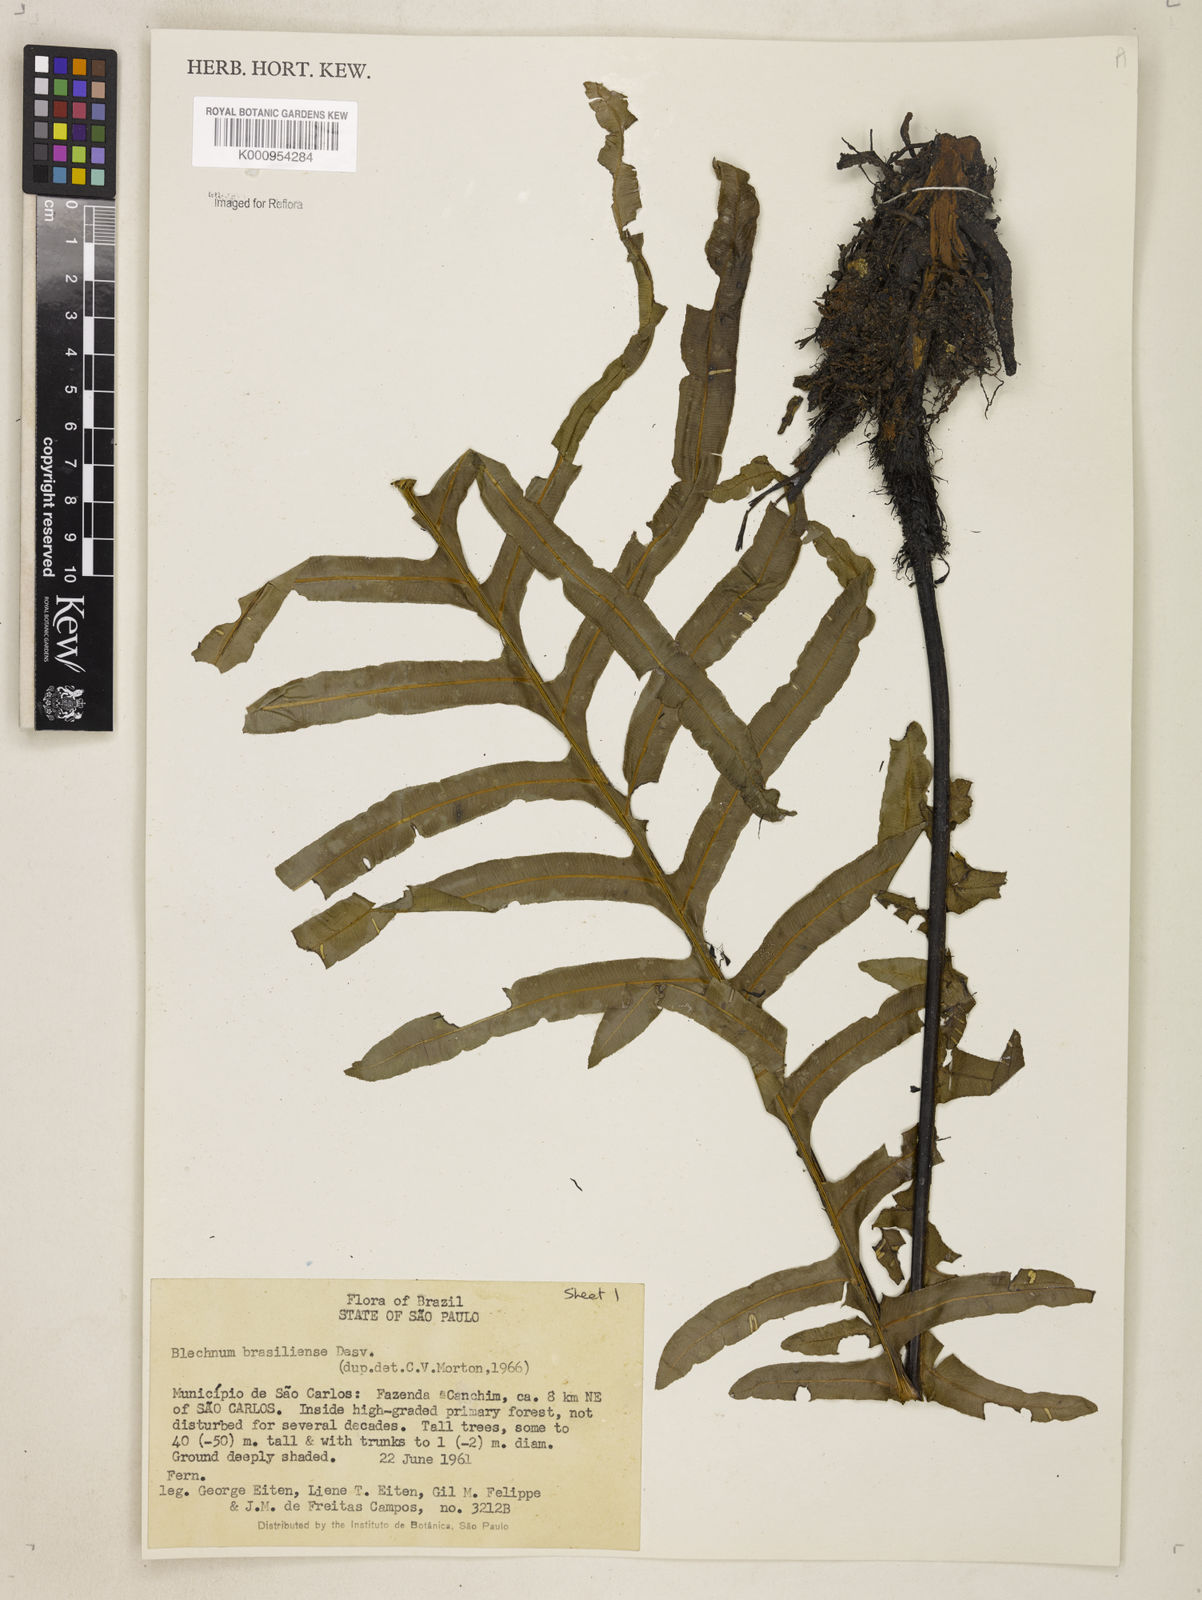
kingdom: Plantae
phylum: Tracheophyta
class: Polypodiopsida
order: Polypodiales
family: Blechnaceae
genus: Neoblechnum
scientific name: Neoblechnum brasiliense
